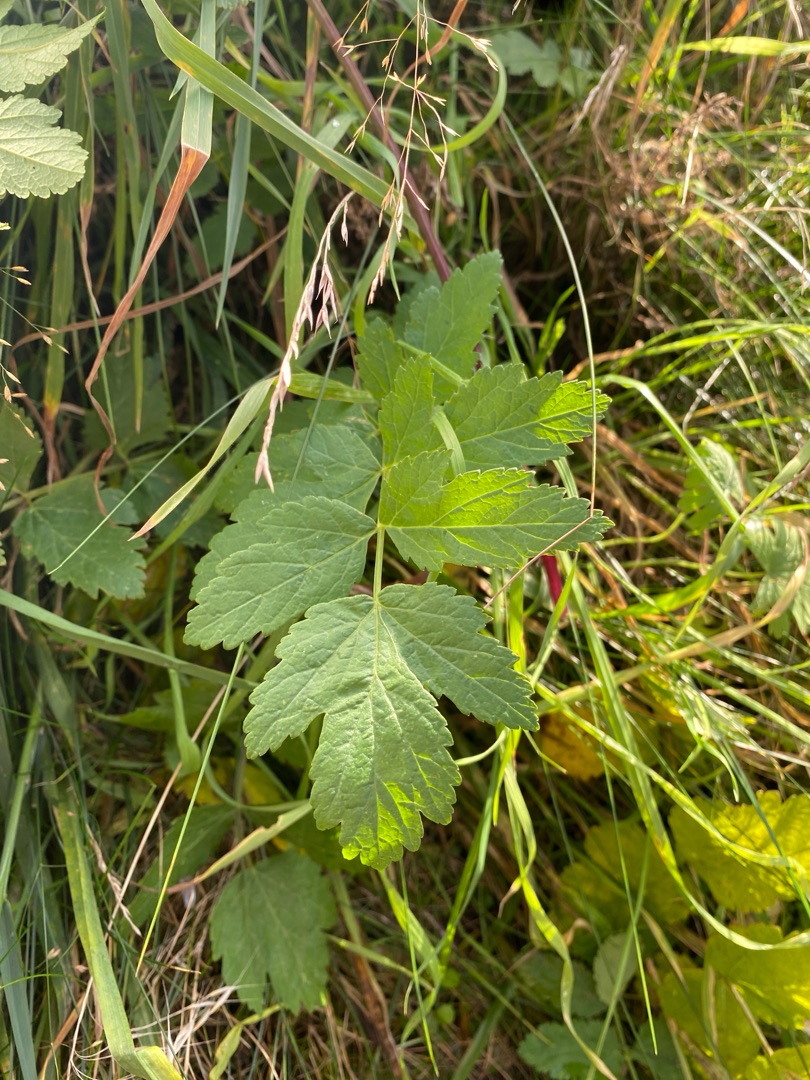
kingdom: Plantae
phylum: Tracheophyta
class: Magnoliopsida
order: Apiales
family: Apiaceae
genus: Pastinaca
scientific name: Pastinaca sativa
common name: Pastinak
